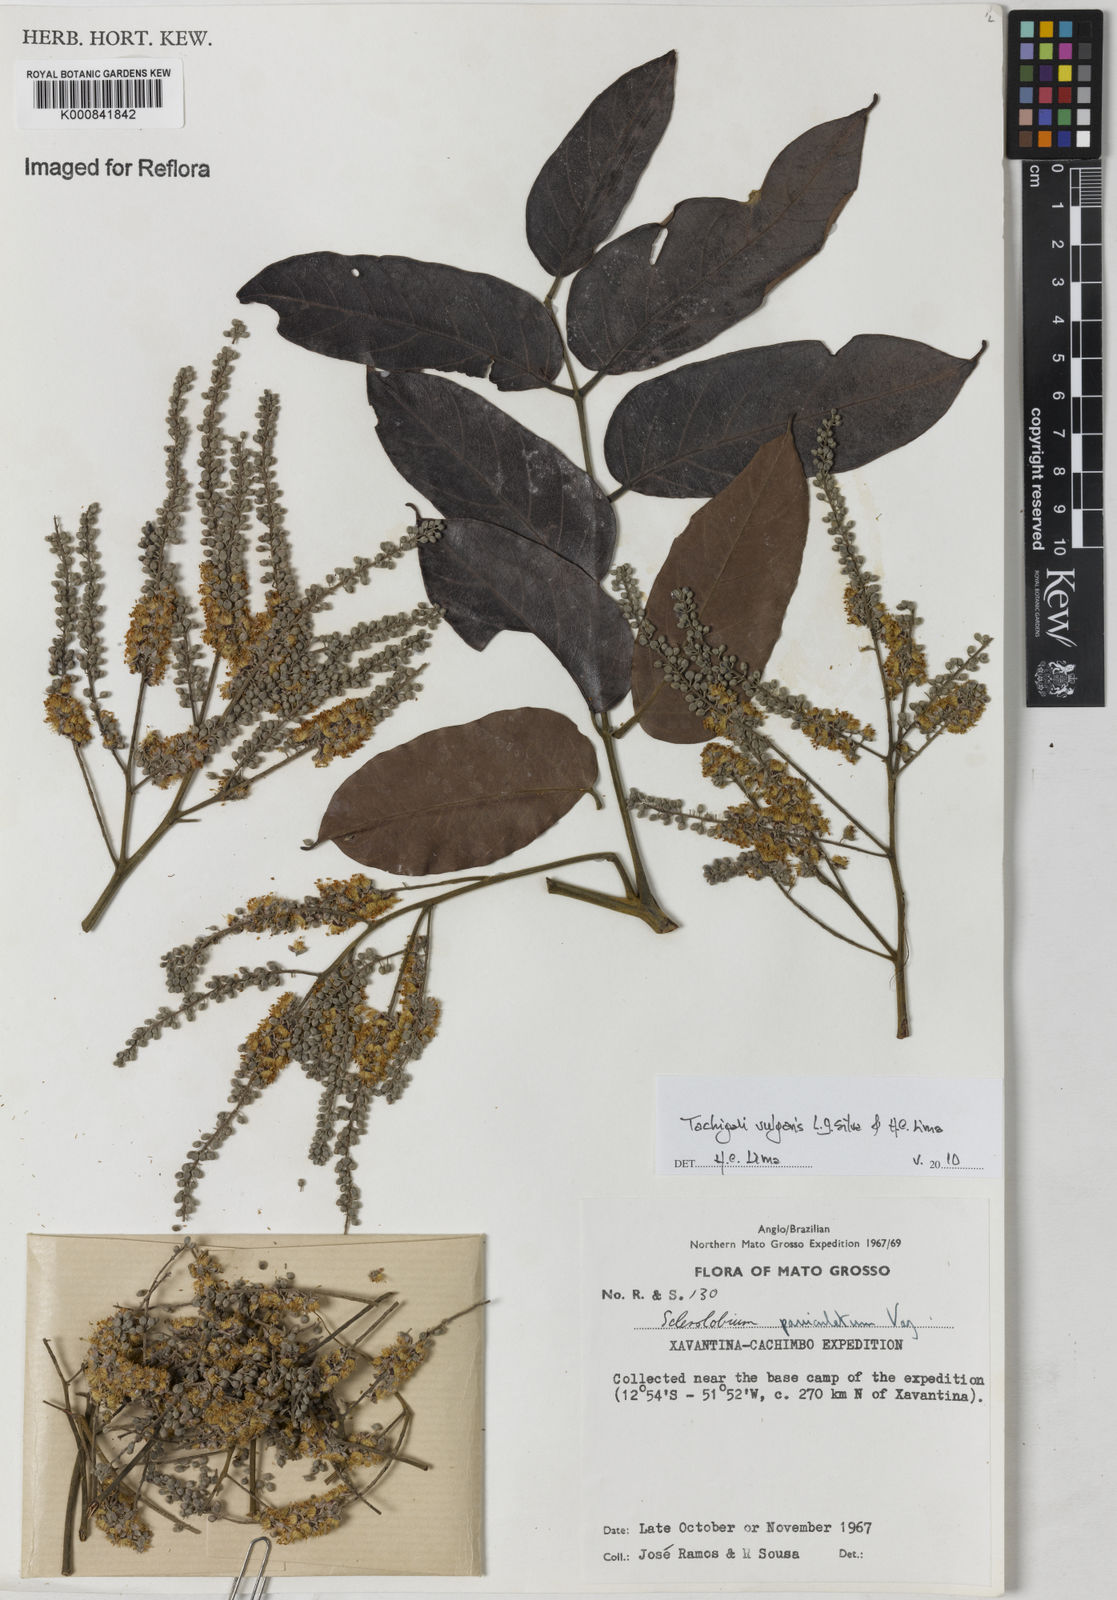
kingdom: Plantae
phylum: Tracheophyta
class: Magnoliopsida
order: Fabales
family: Fabaceae
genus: Tachigali
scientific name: Tachigali vulgaris
